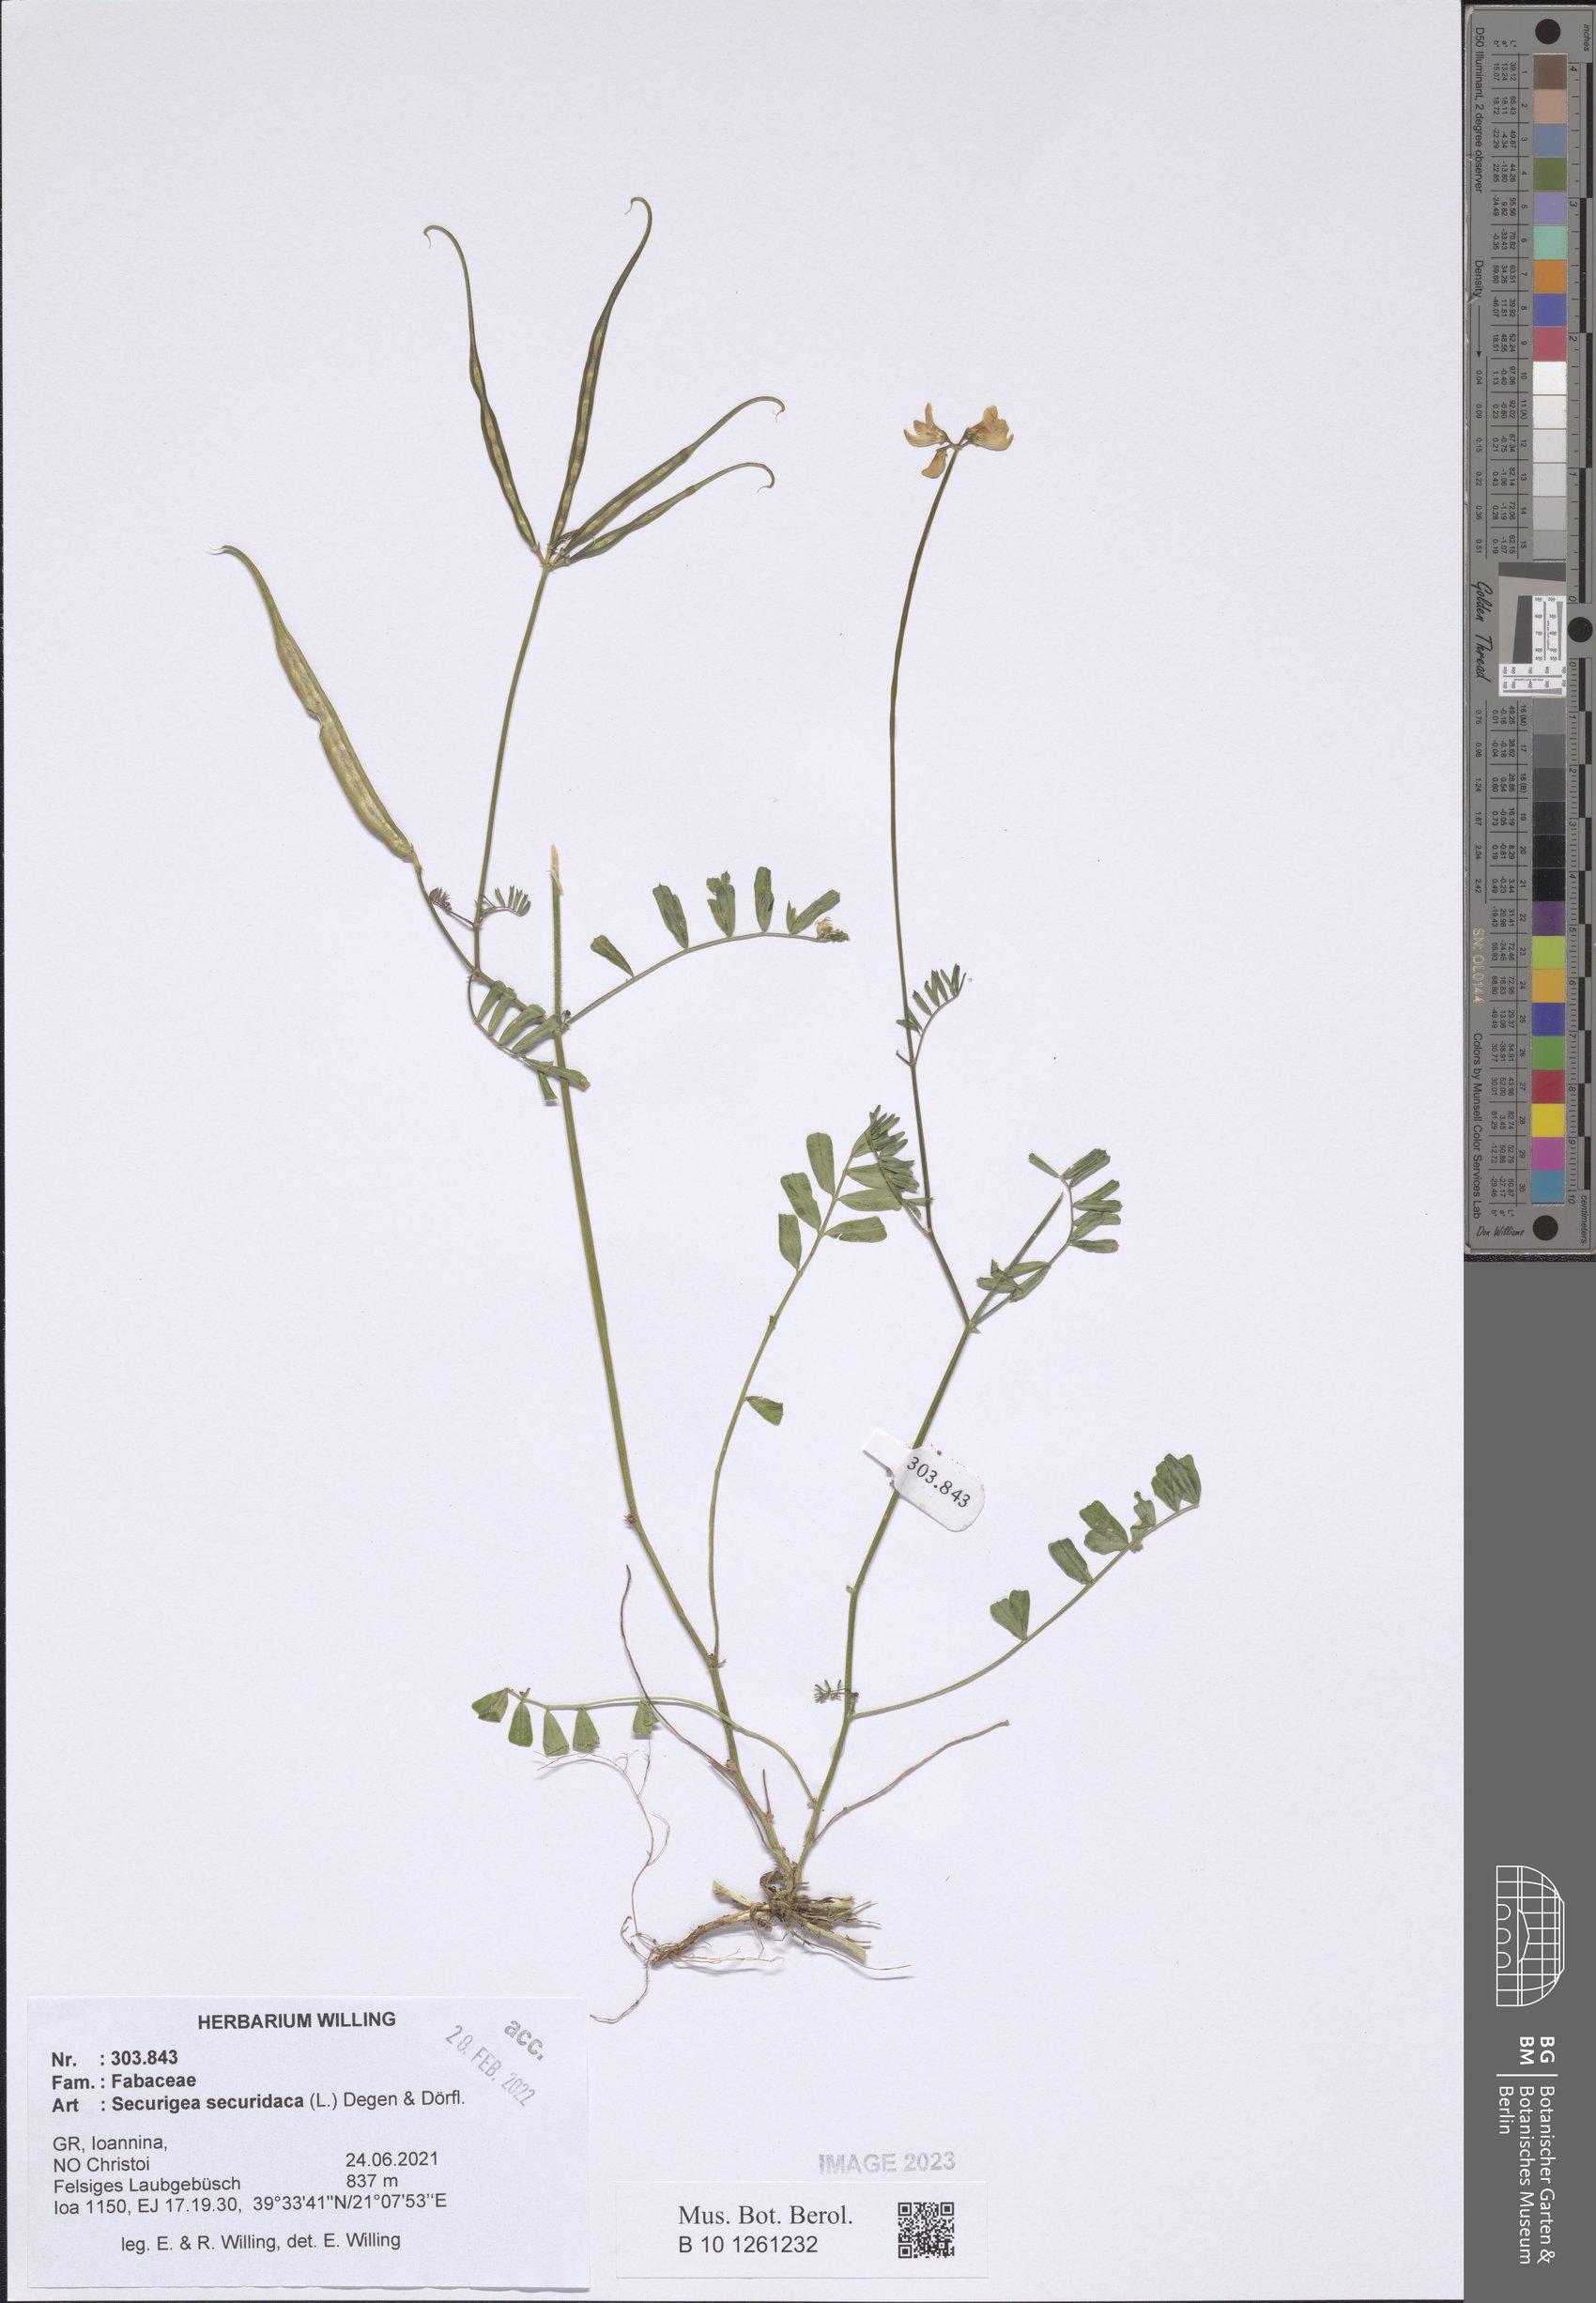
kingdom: Plantae
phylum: Tracheophyta
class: Magnoliopsida
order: Fabales
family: Fabaceae
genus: Coronilla
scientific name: Coronilla securidaca
